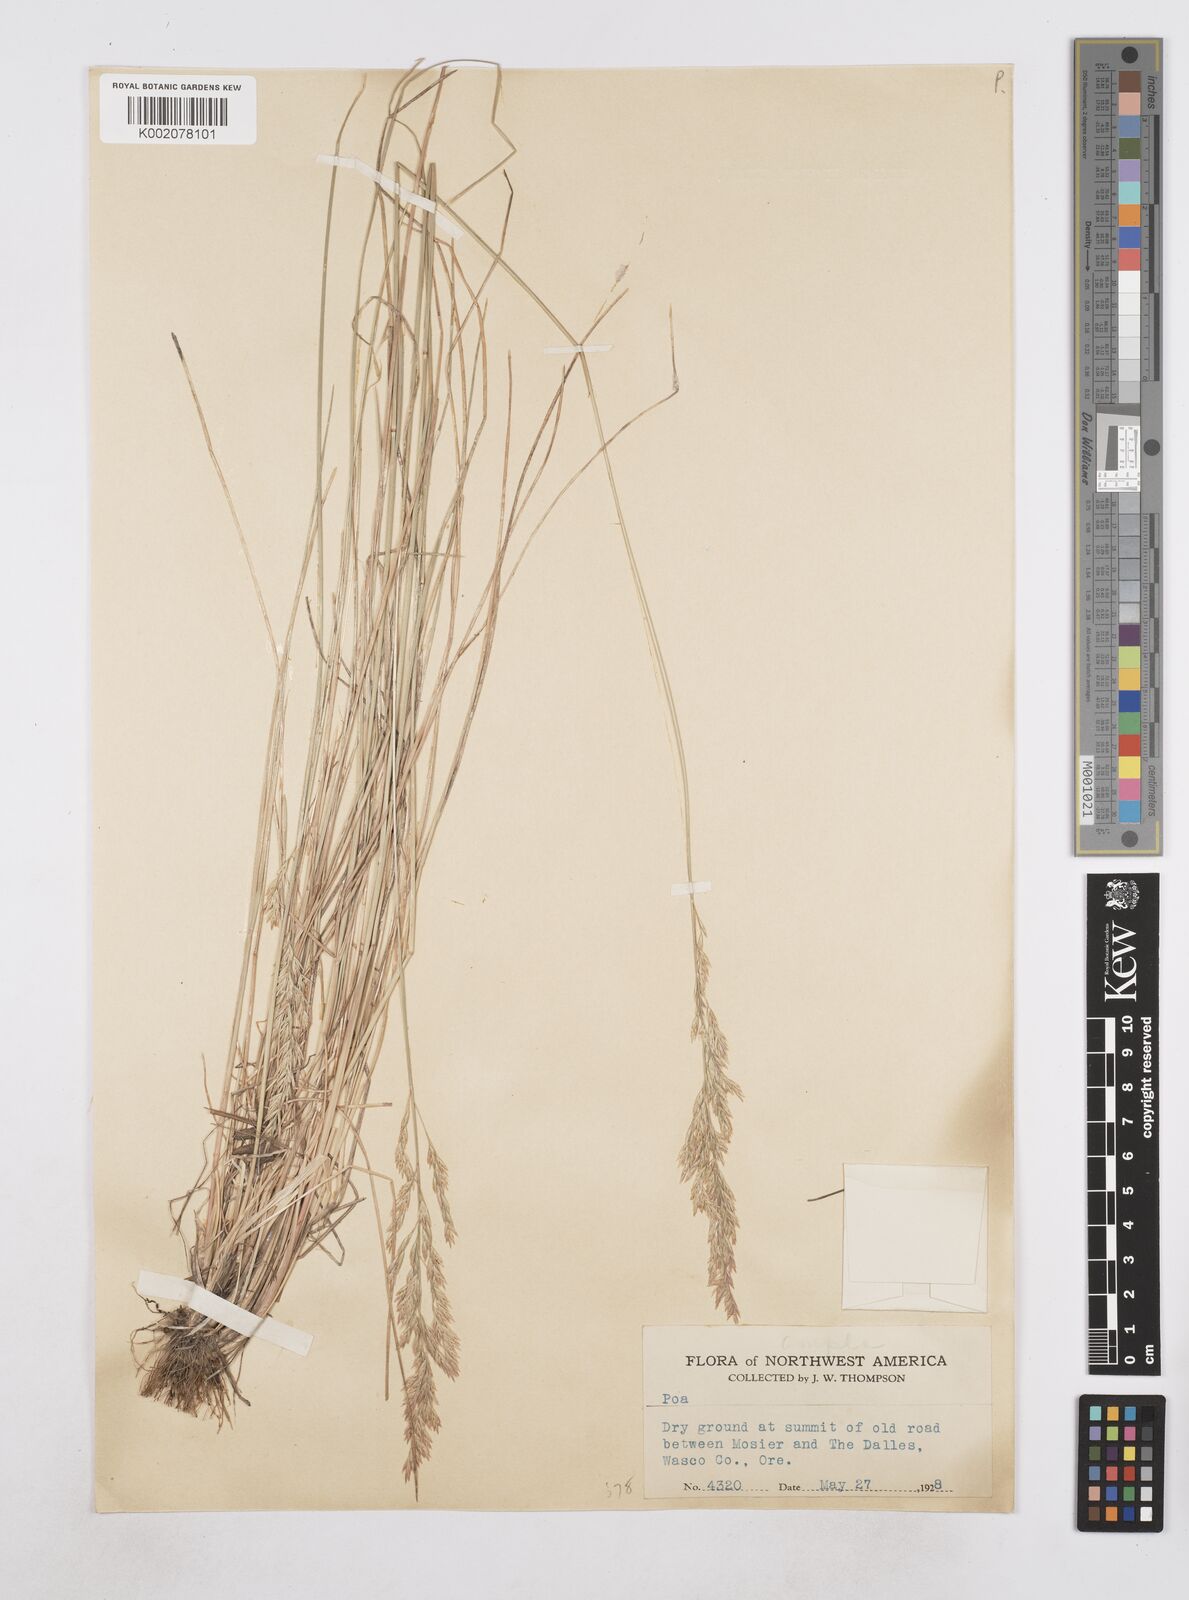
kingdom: Plantae
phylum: Tracheophyta
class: Liliopsida
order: Poales
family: Poaceae
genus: Poa
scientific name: Poa
